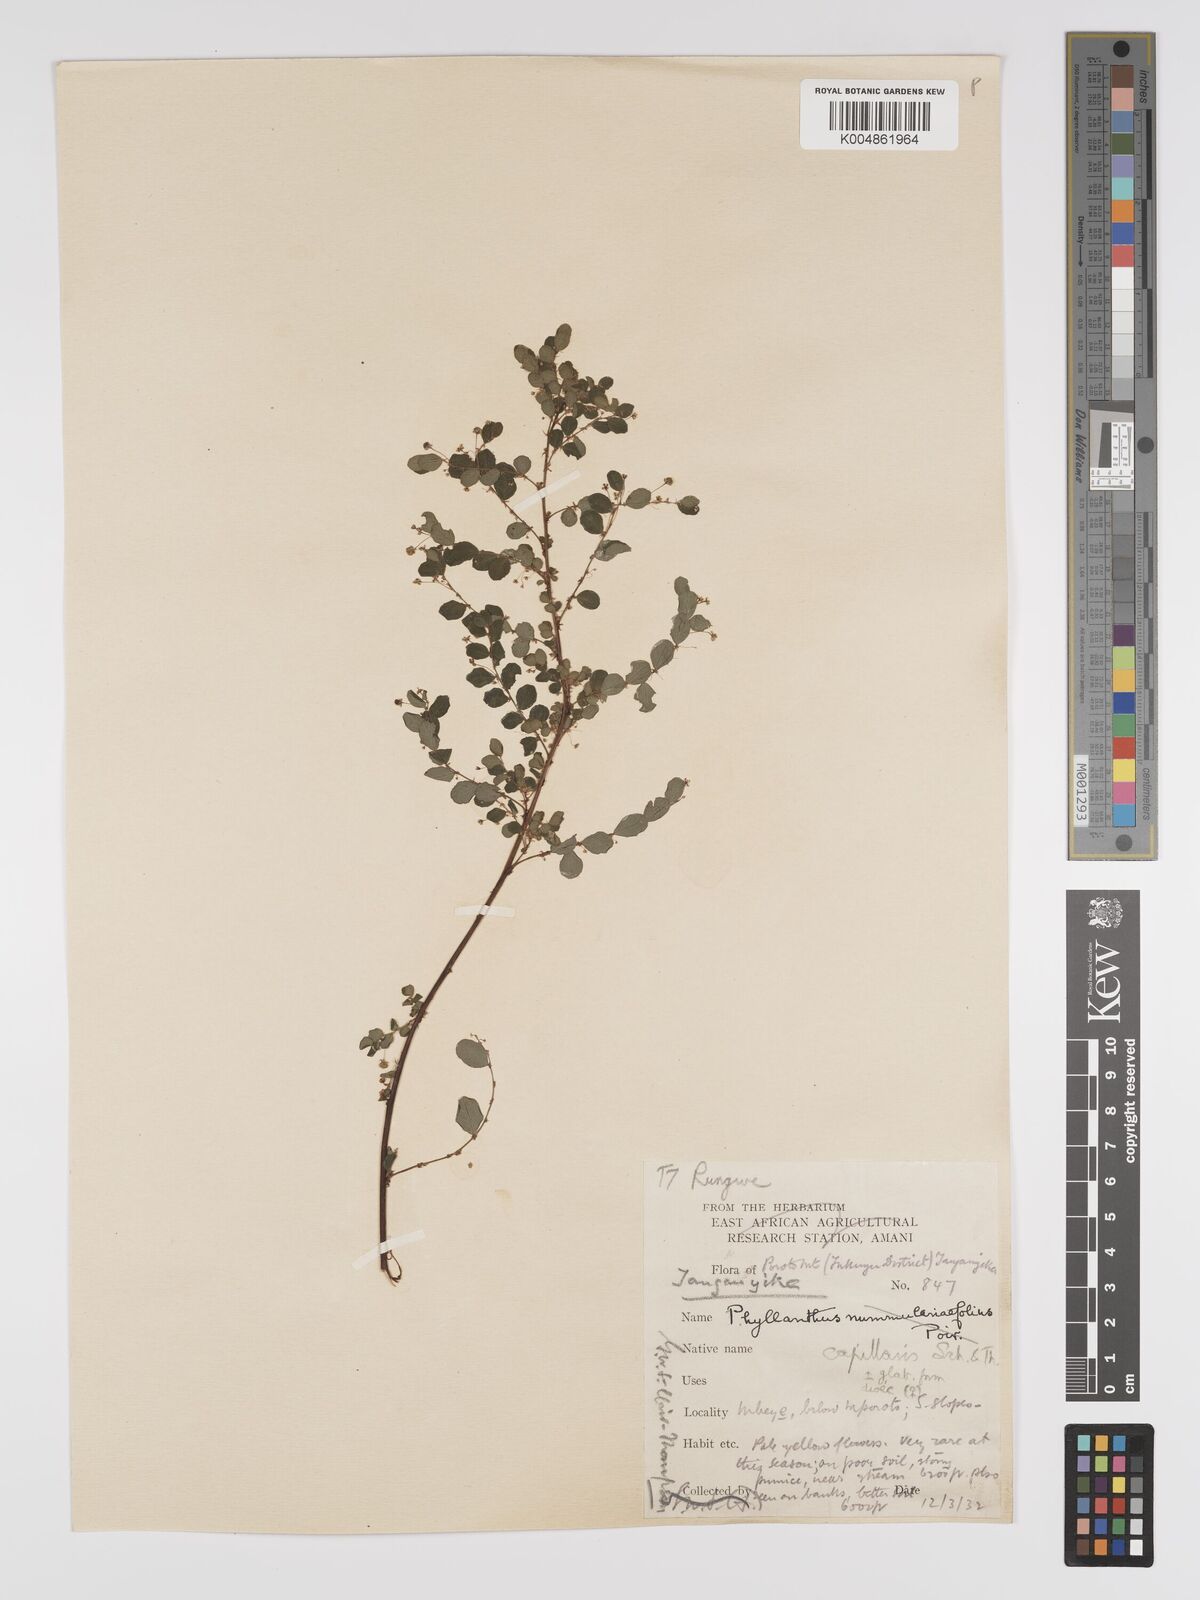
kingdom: Plantae
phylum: Tracheophyta
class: Magnoliopsida
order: Malpighiales
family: Phyllanthaceae
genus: Phyllanthus
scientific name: Phyllanthus nummulariifolius
